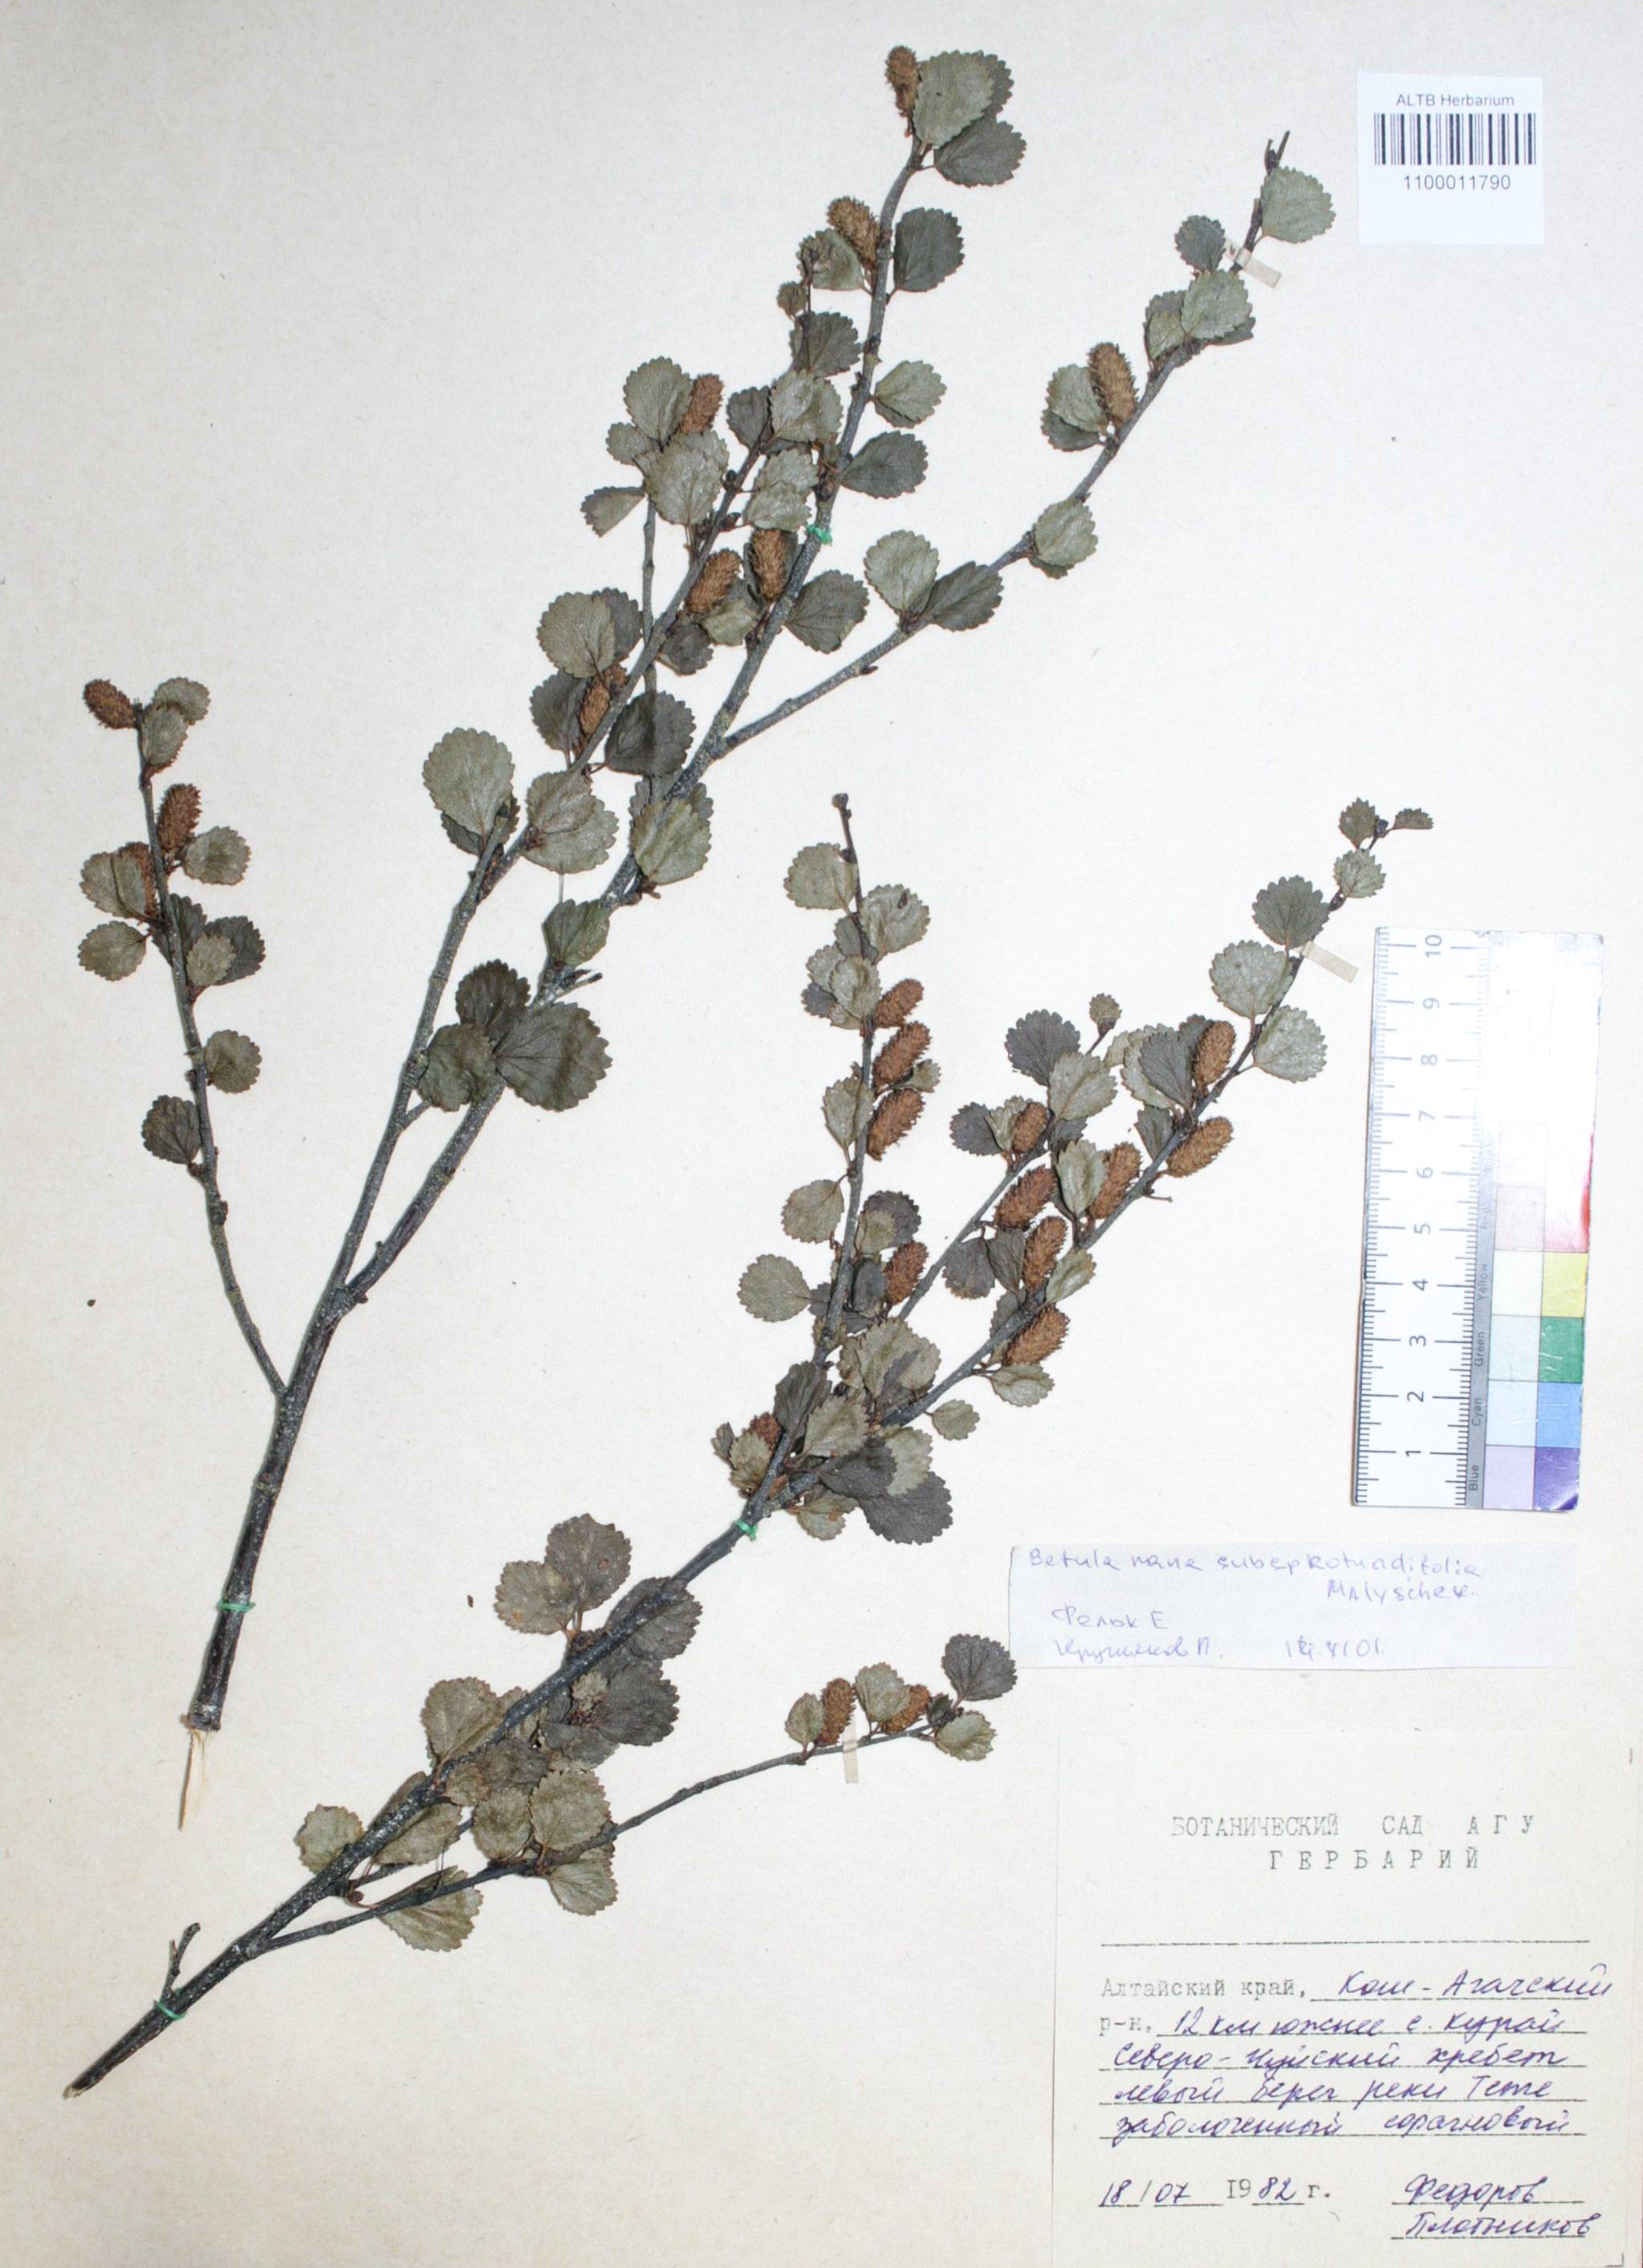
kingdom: Plantae
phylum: Tracheophyta
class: Magnoliopsida
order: Fagales
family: Betulaceae
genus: Betula
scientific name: Betula glandulosa
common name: Dwarf birch
